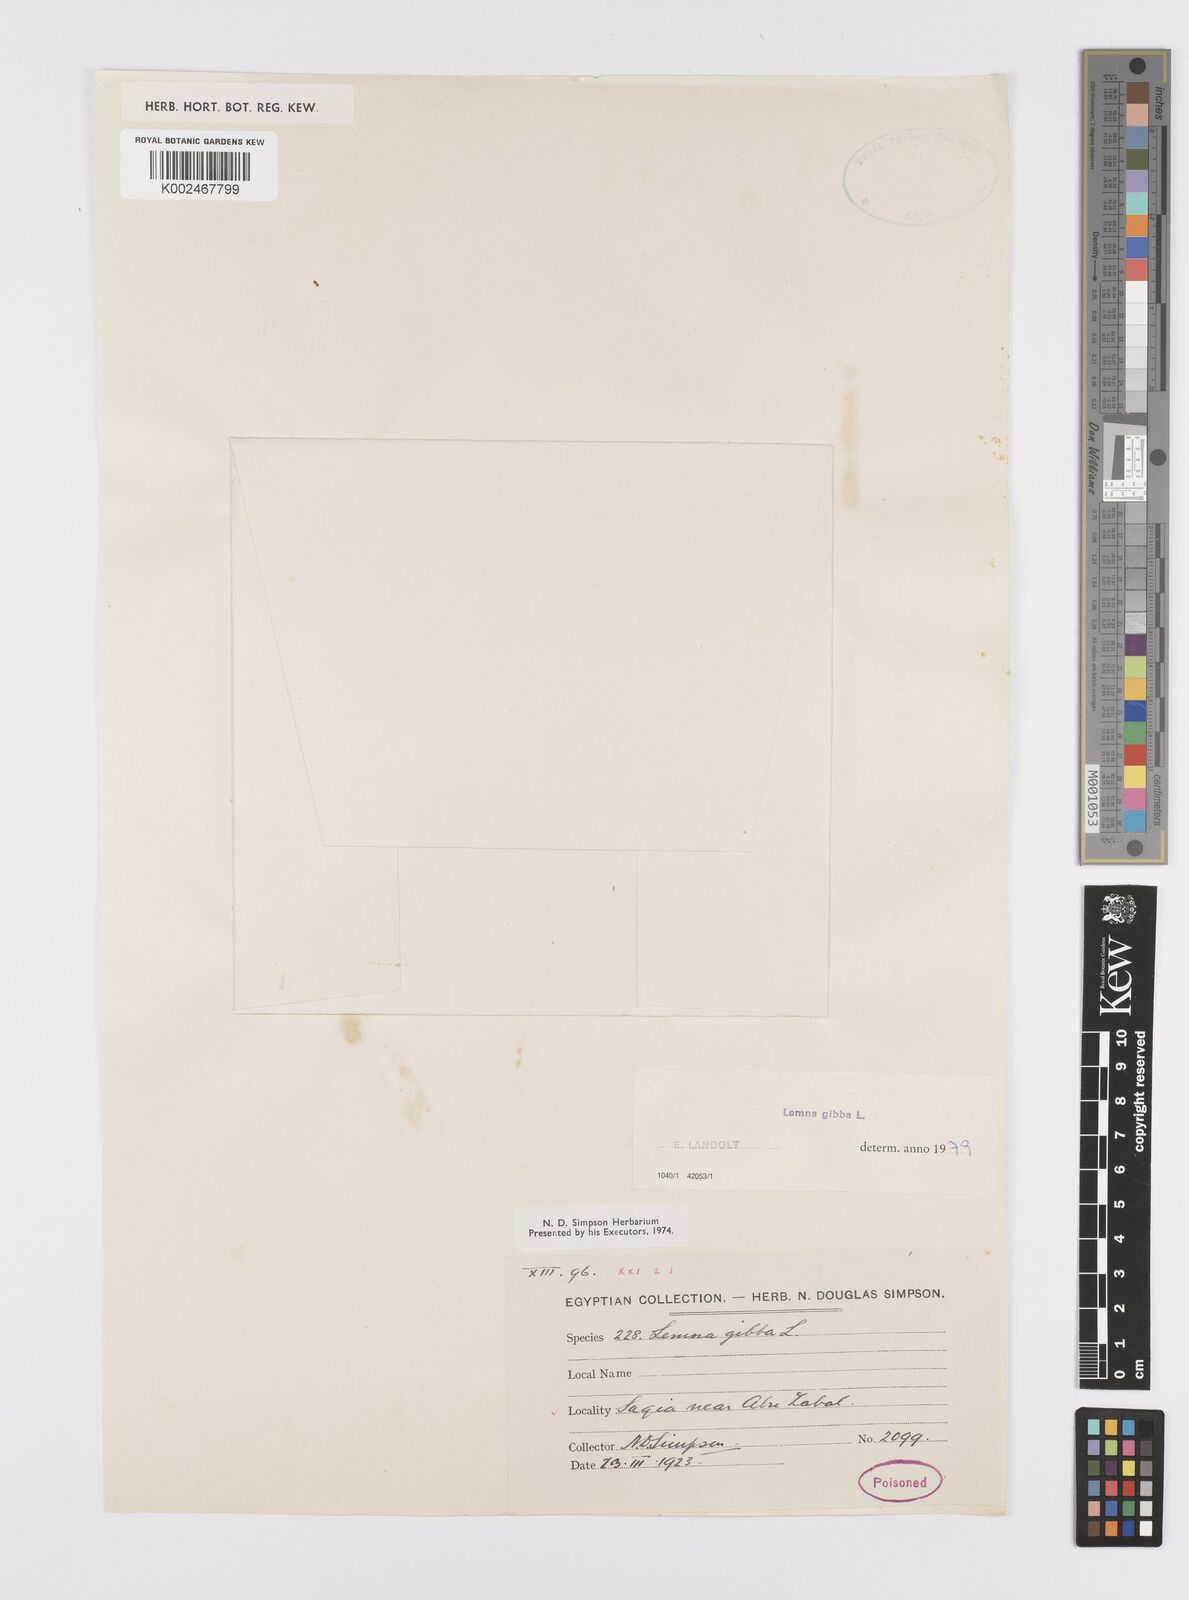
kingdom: Plantae
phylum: Tracheophyta
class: Liliopsida
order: Alismatales
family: Araceae
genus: Lemna
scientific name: Lemna gibba
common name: Fat duckweed
